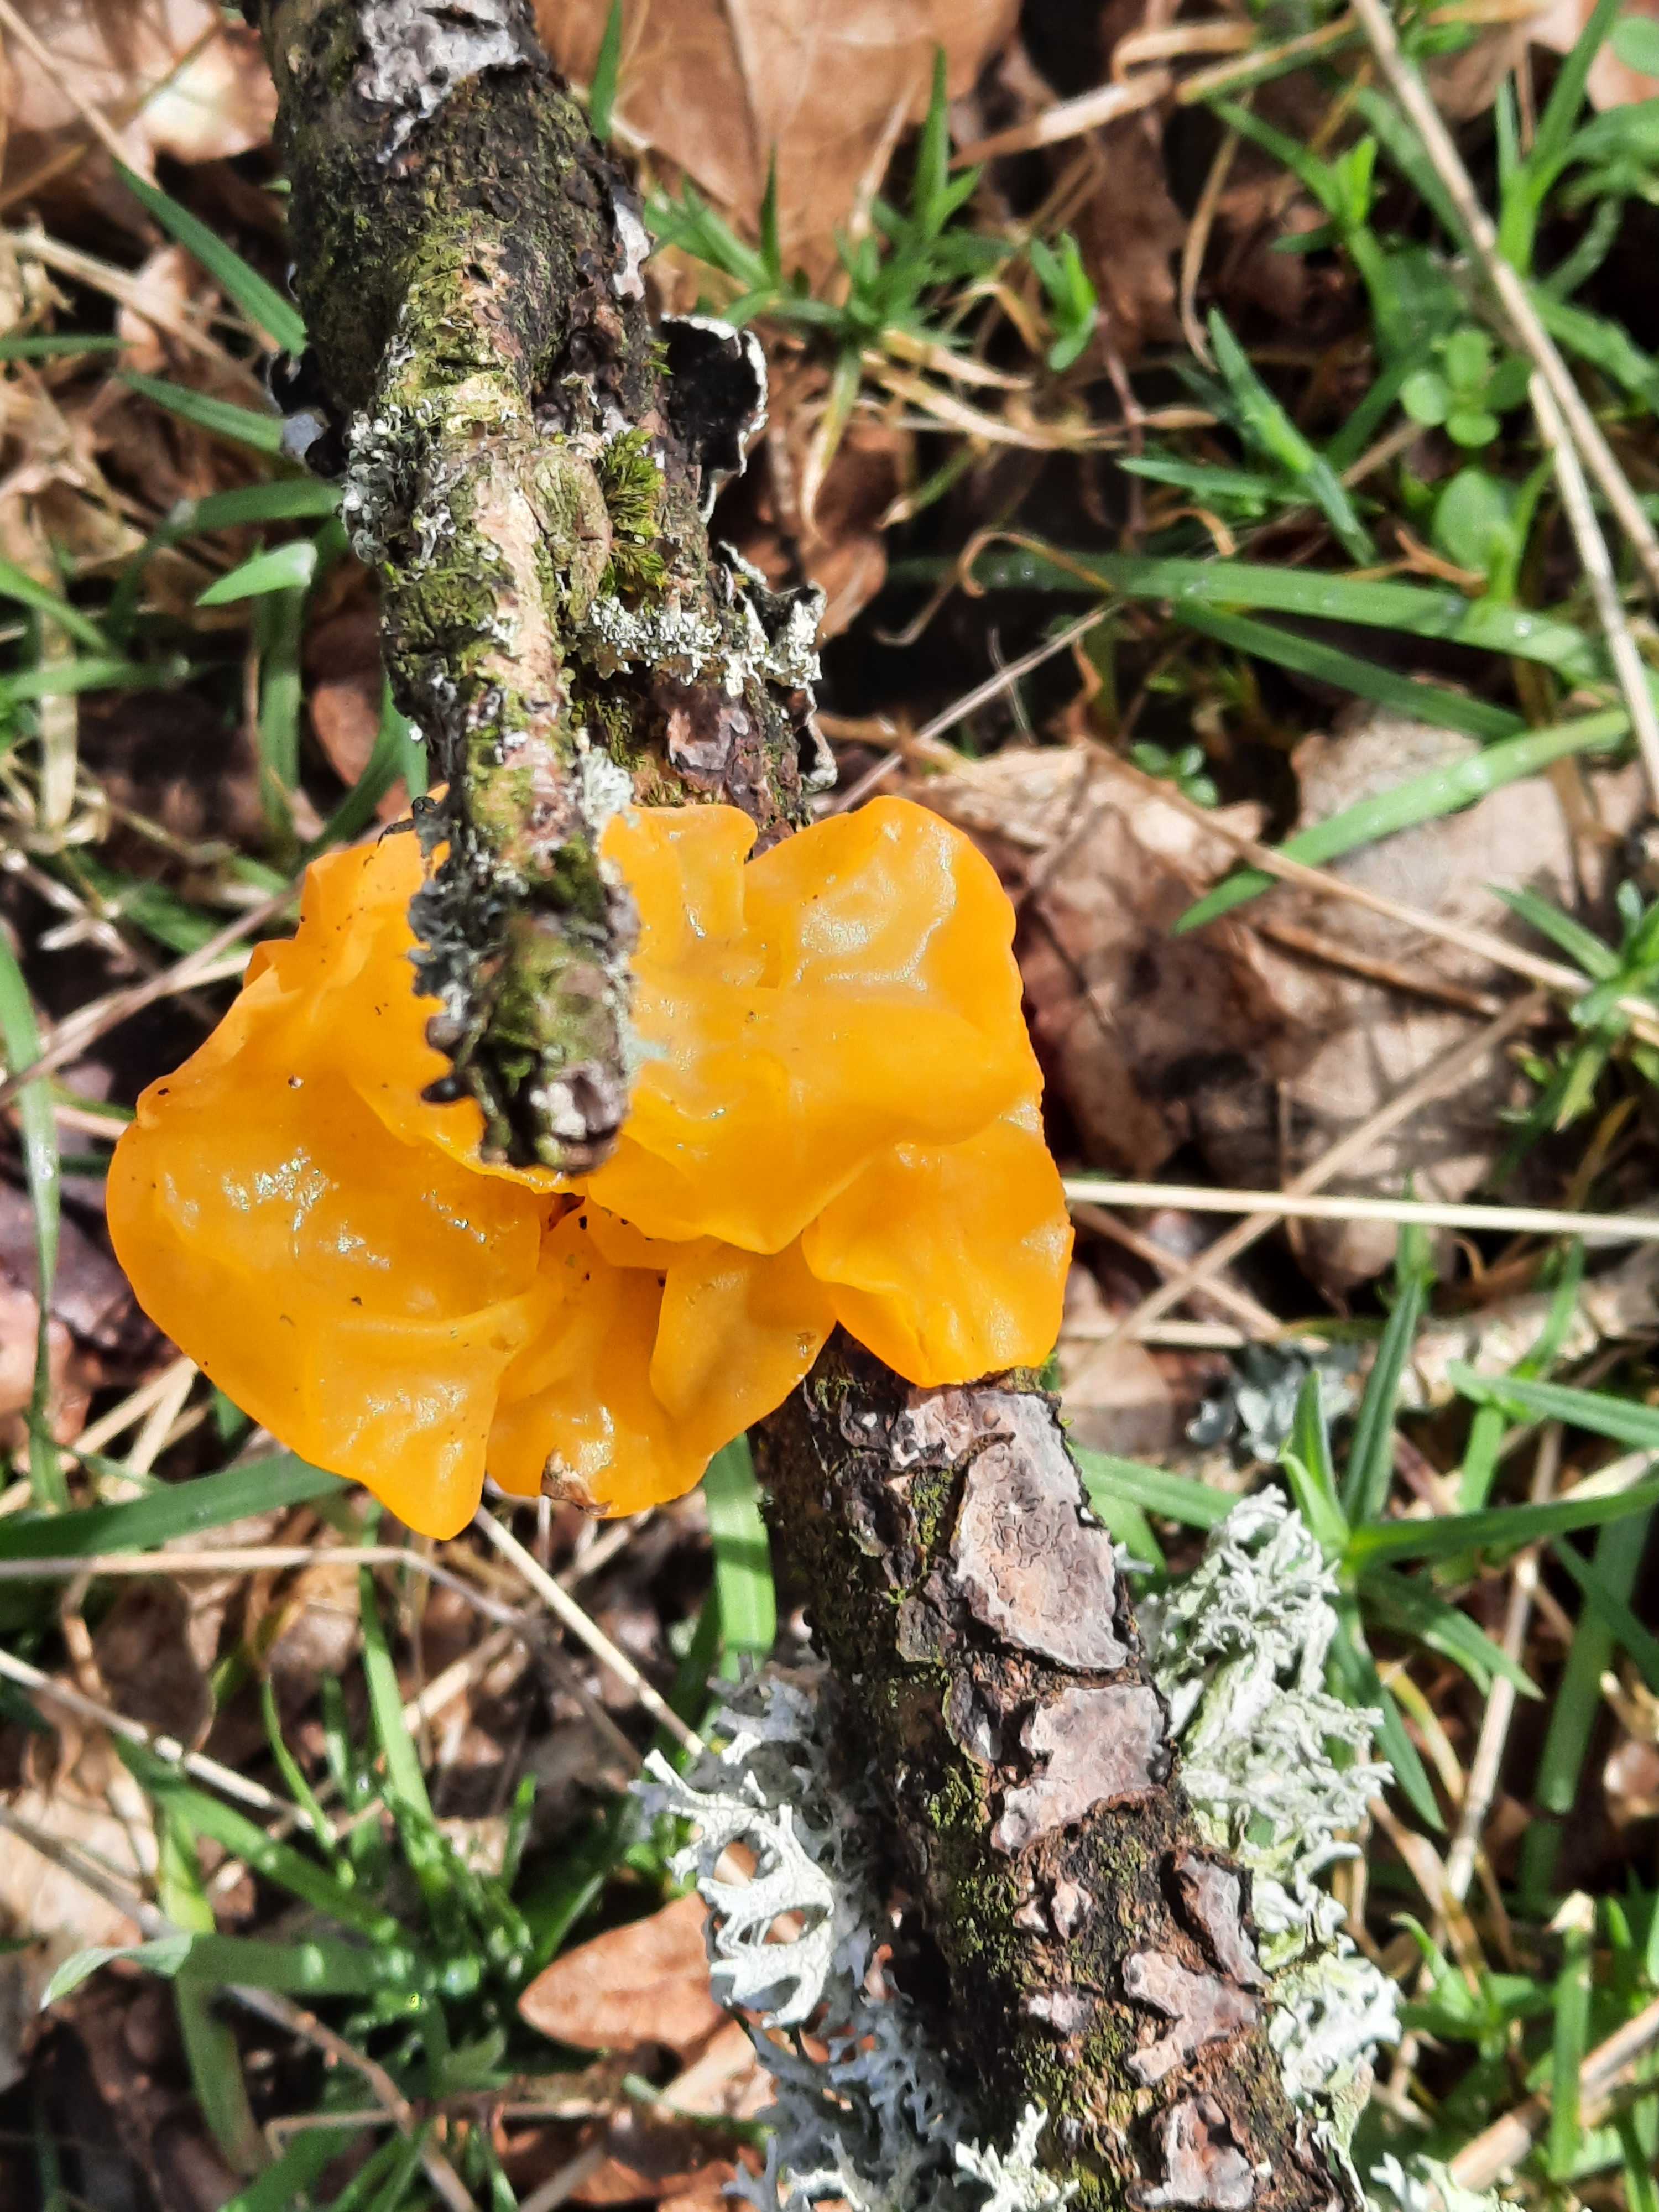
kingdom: Fungi
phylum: Basidiomycota
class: Tremellomycetes
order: Tremellales
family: Tremellaceae
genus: Tremella
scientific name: Tremella mesenterica
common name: gul bævresvamp
